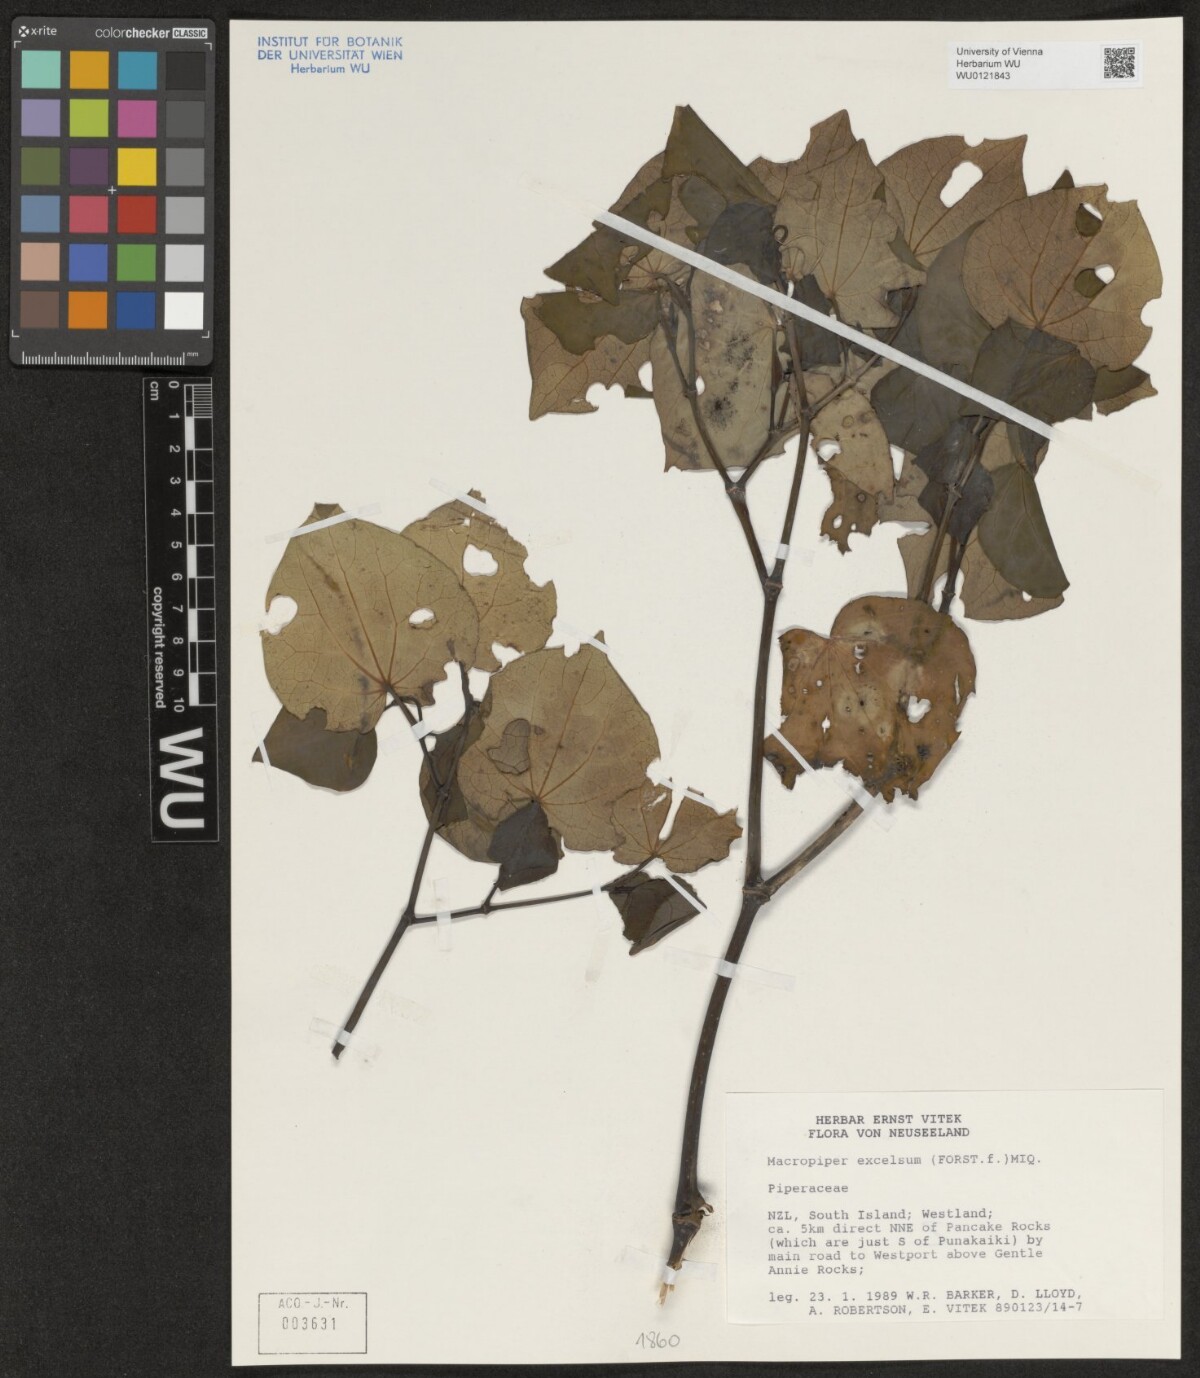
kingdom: Plantae
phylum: Tracheophyta
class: Magnoliopsida
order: Piperales
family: Piperaceae
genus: Macropiper
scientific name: Macropiper excelsum
